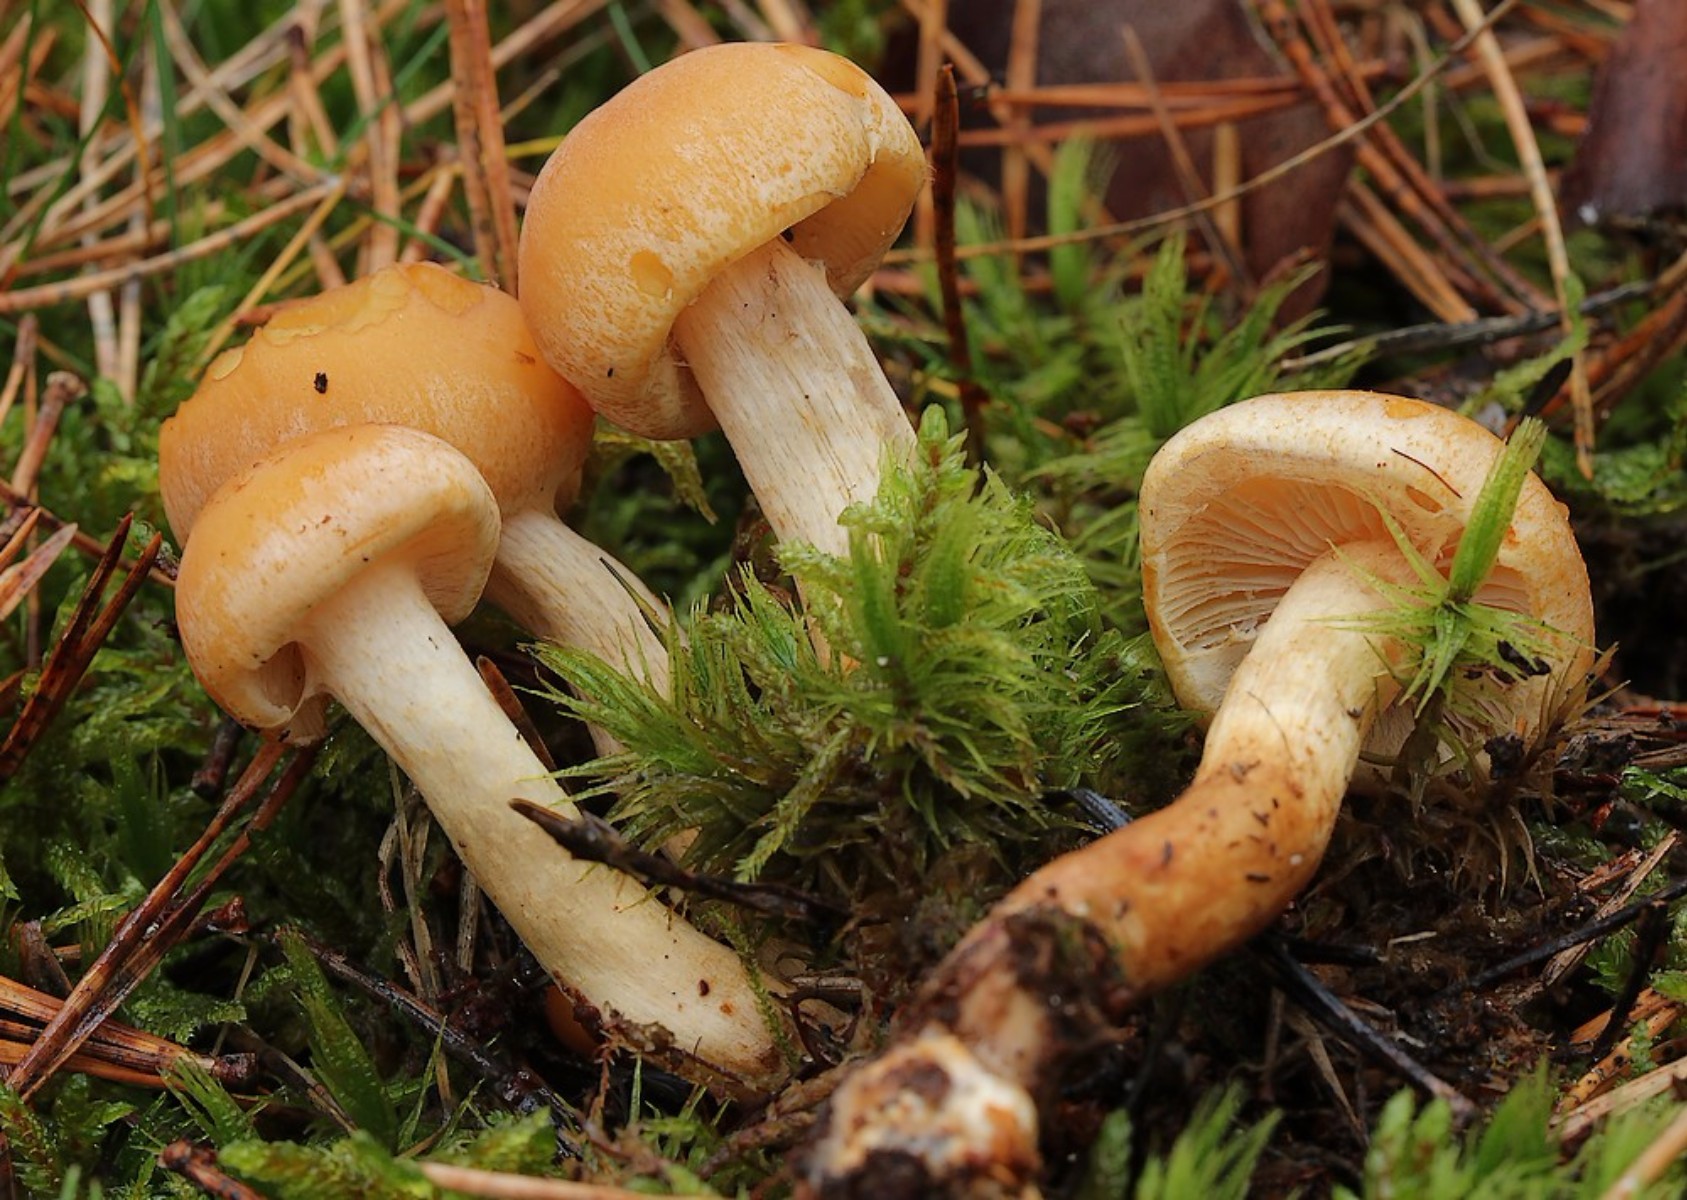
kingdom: Fungi
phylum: Basidiomycota
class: Agaricomycetes
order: Agaricales
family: Strophariaceae
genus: Hypholoma
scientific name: Hypholoma capnoides
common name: gran-svovlhat
